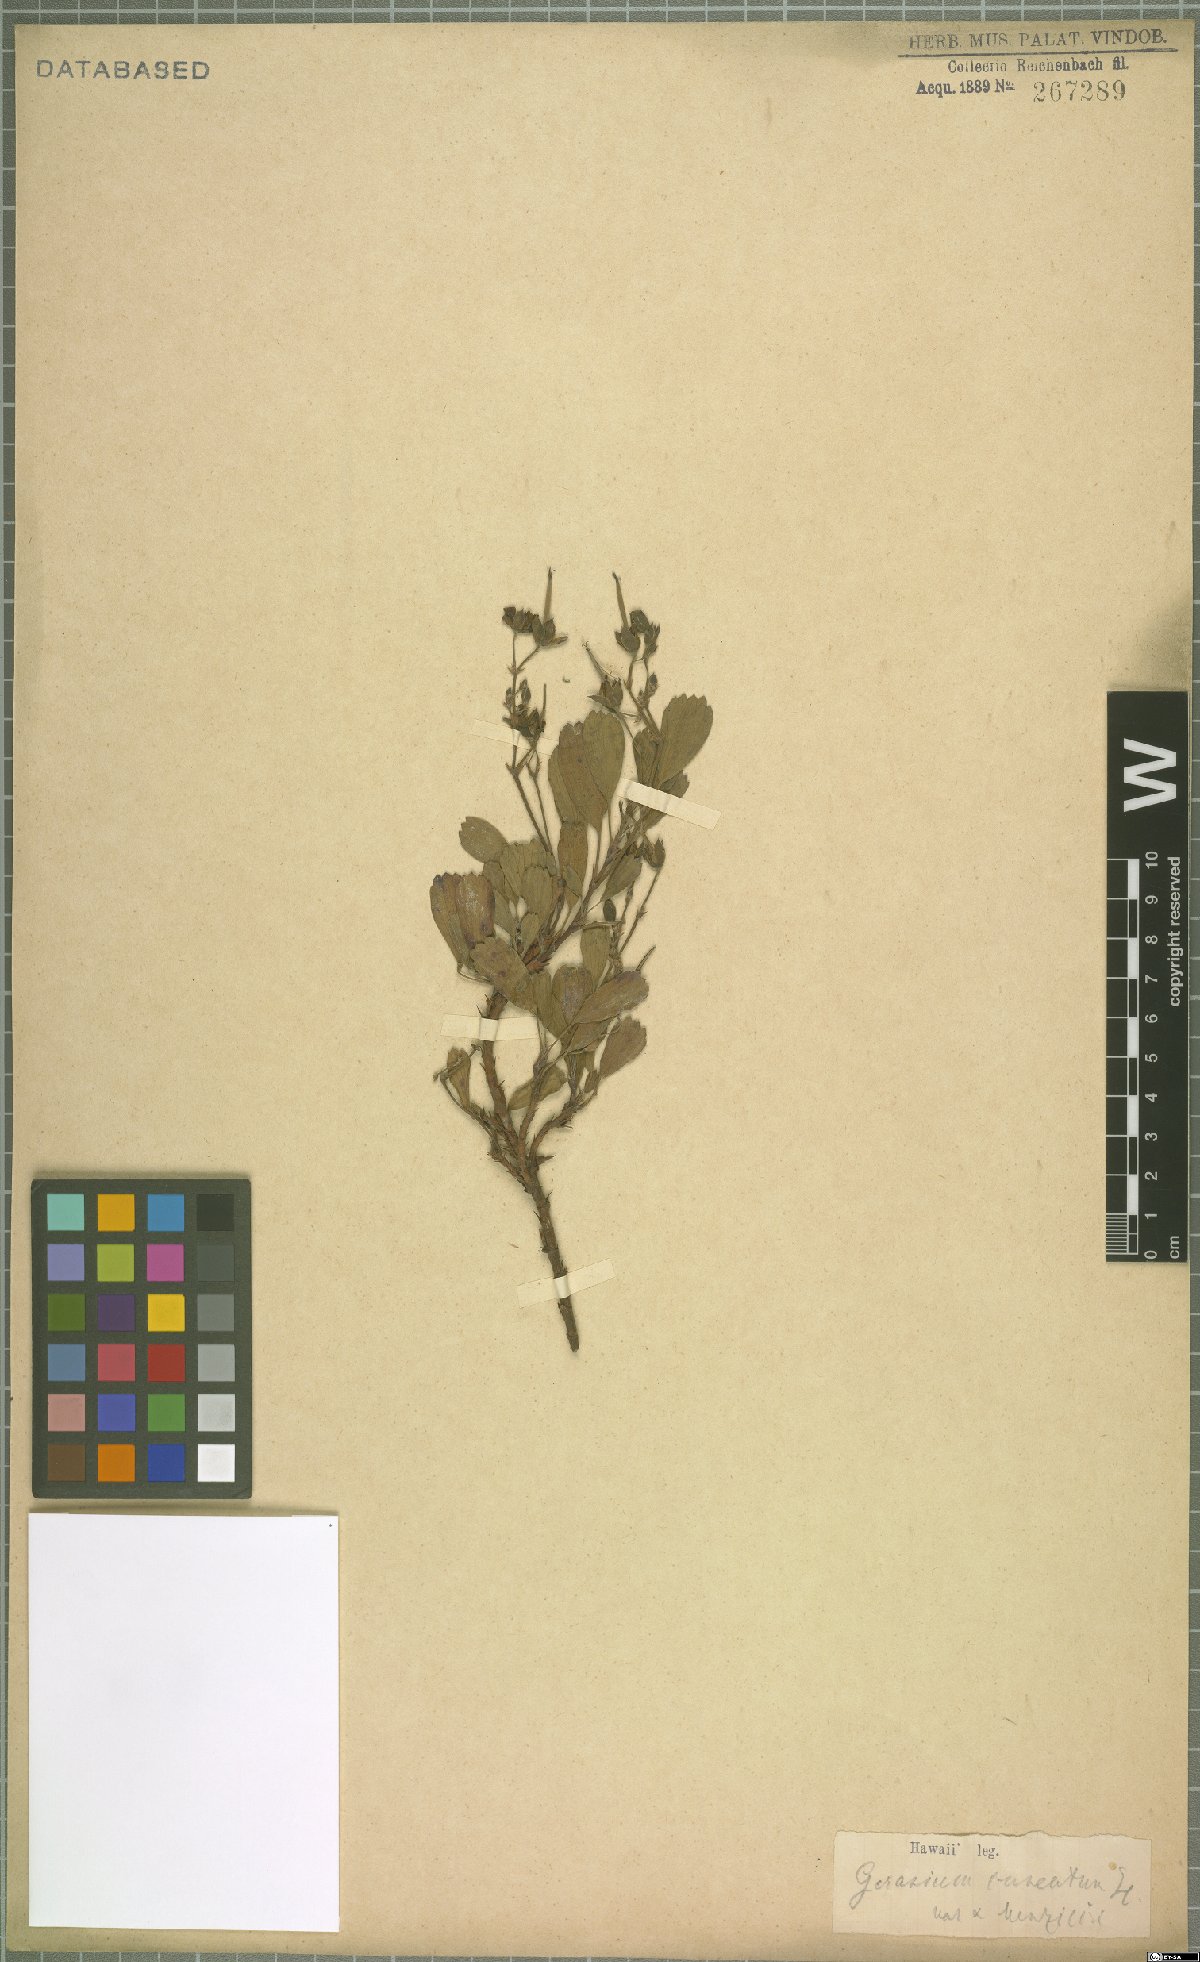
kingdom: Plantae
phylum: Tracheophyta
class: Magnoliopsida
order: Geraniales
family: Geraniaceae
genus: Geranium
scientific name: Geranium cuneatum
